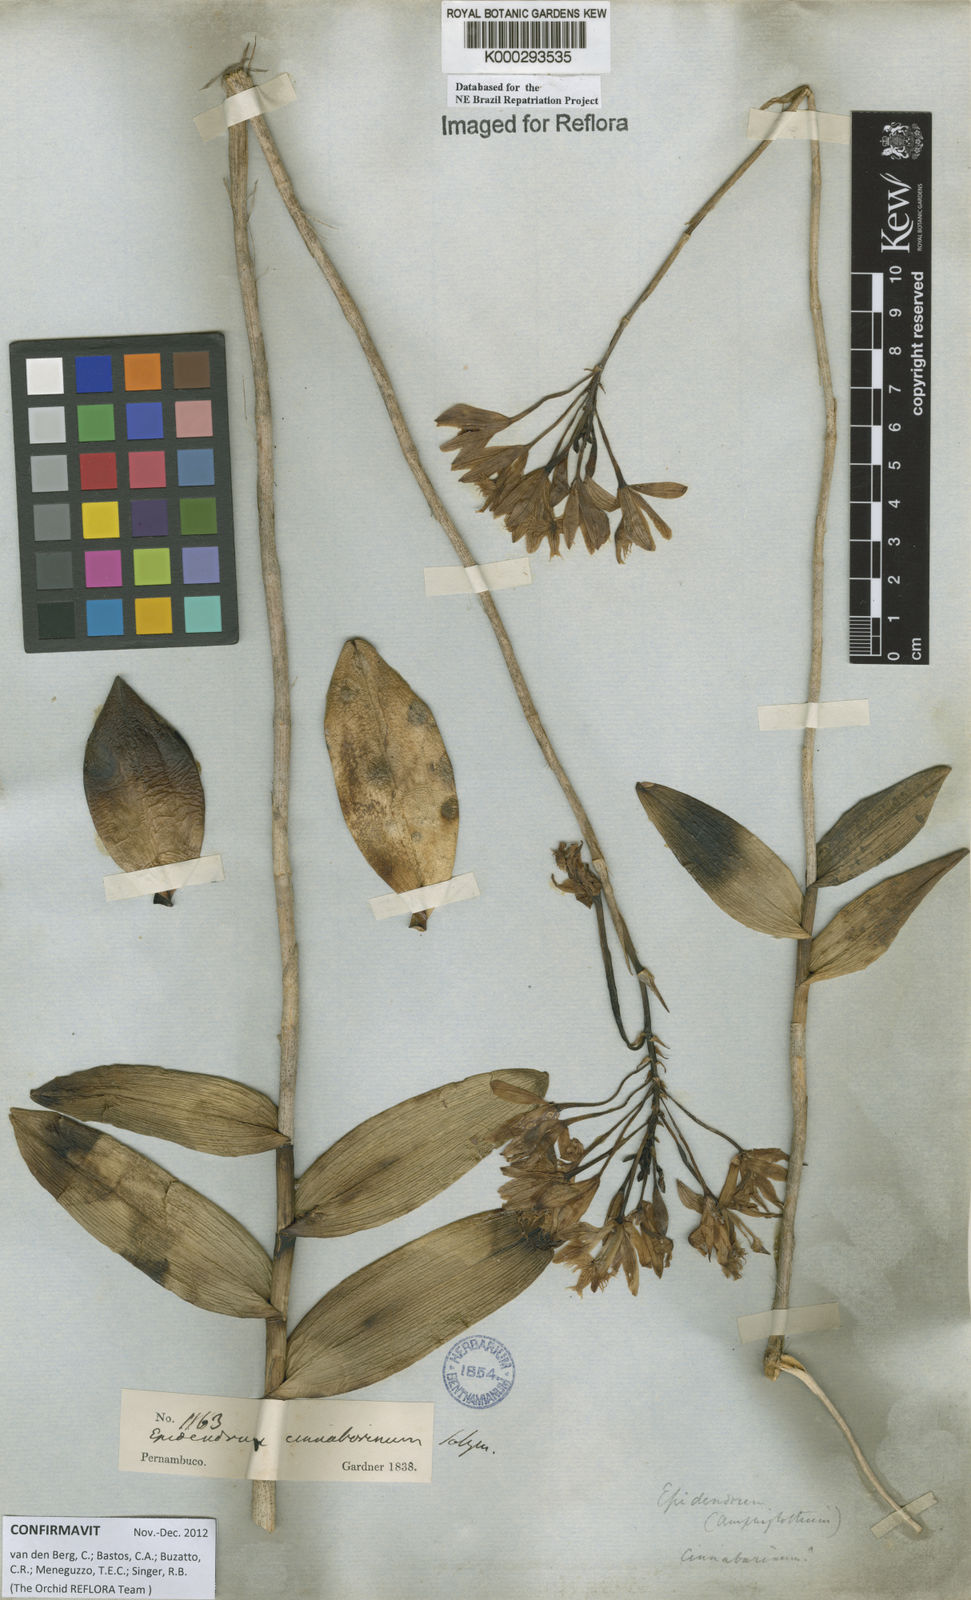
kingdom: Plantae
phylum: Tracheophyta
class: Liliopsida
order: Asparagales
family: Orchidaceae
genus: Epidendrum
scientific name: Epidendrum cinnabarinum
